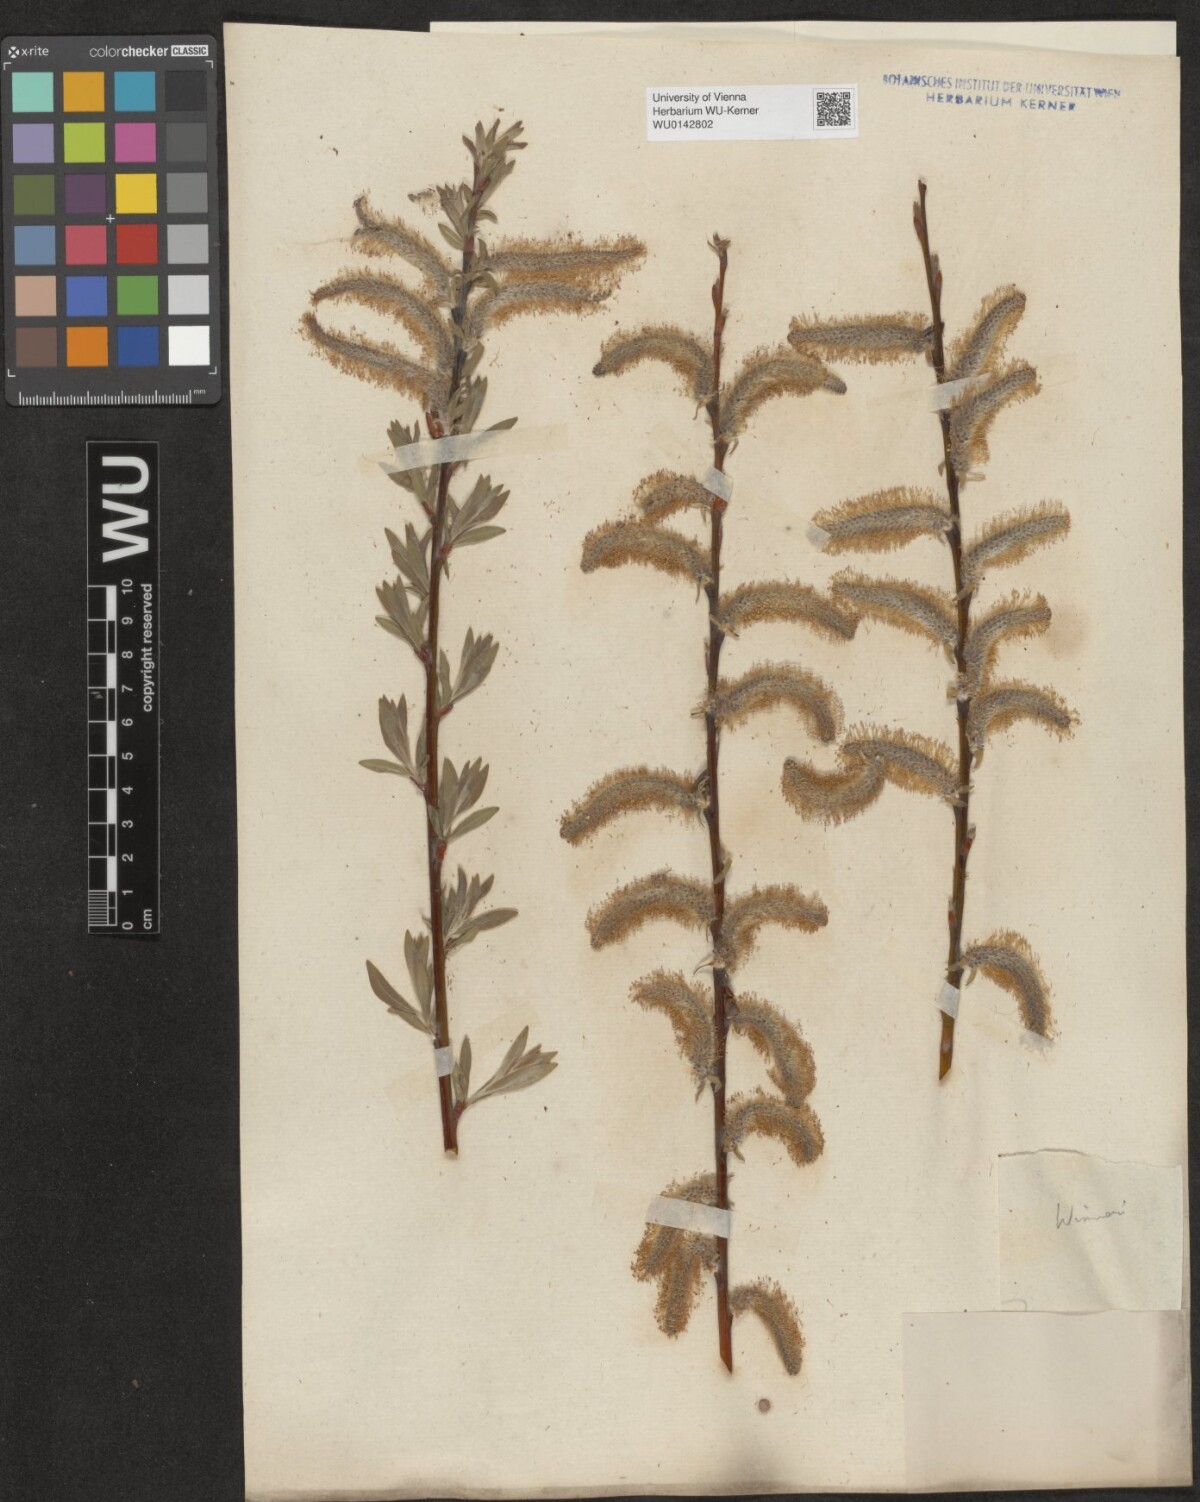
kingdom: Plantae
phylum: Tracheophyta
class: Magnoliopsida
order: Malpighiales
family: Salicaceae
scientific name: Salicaceae
